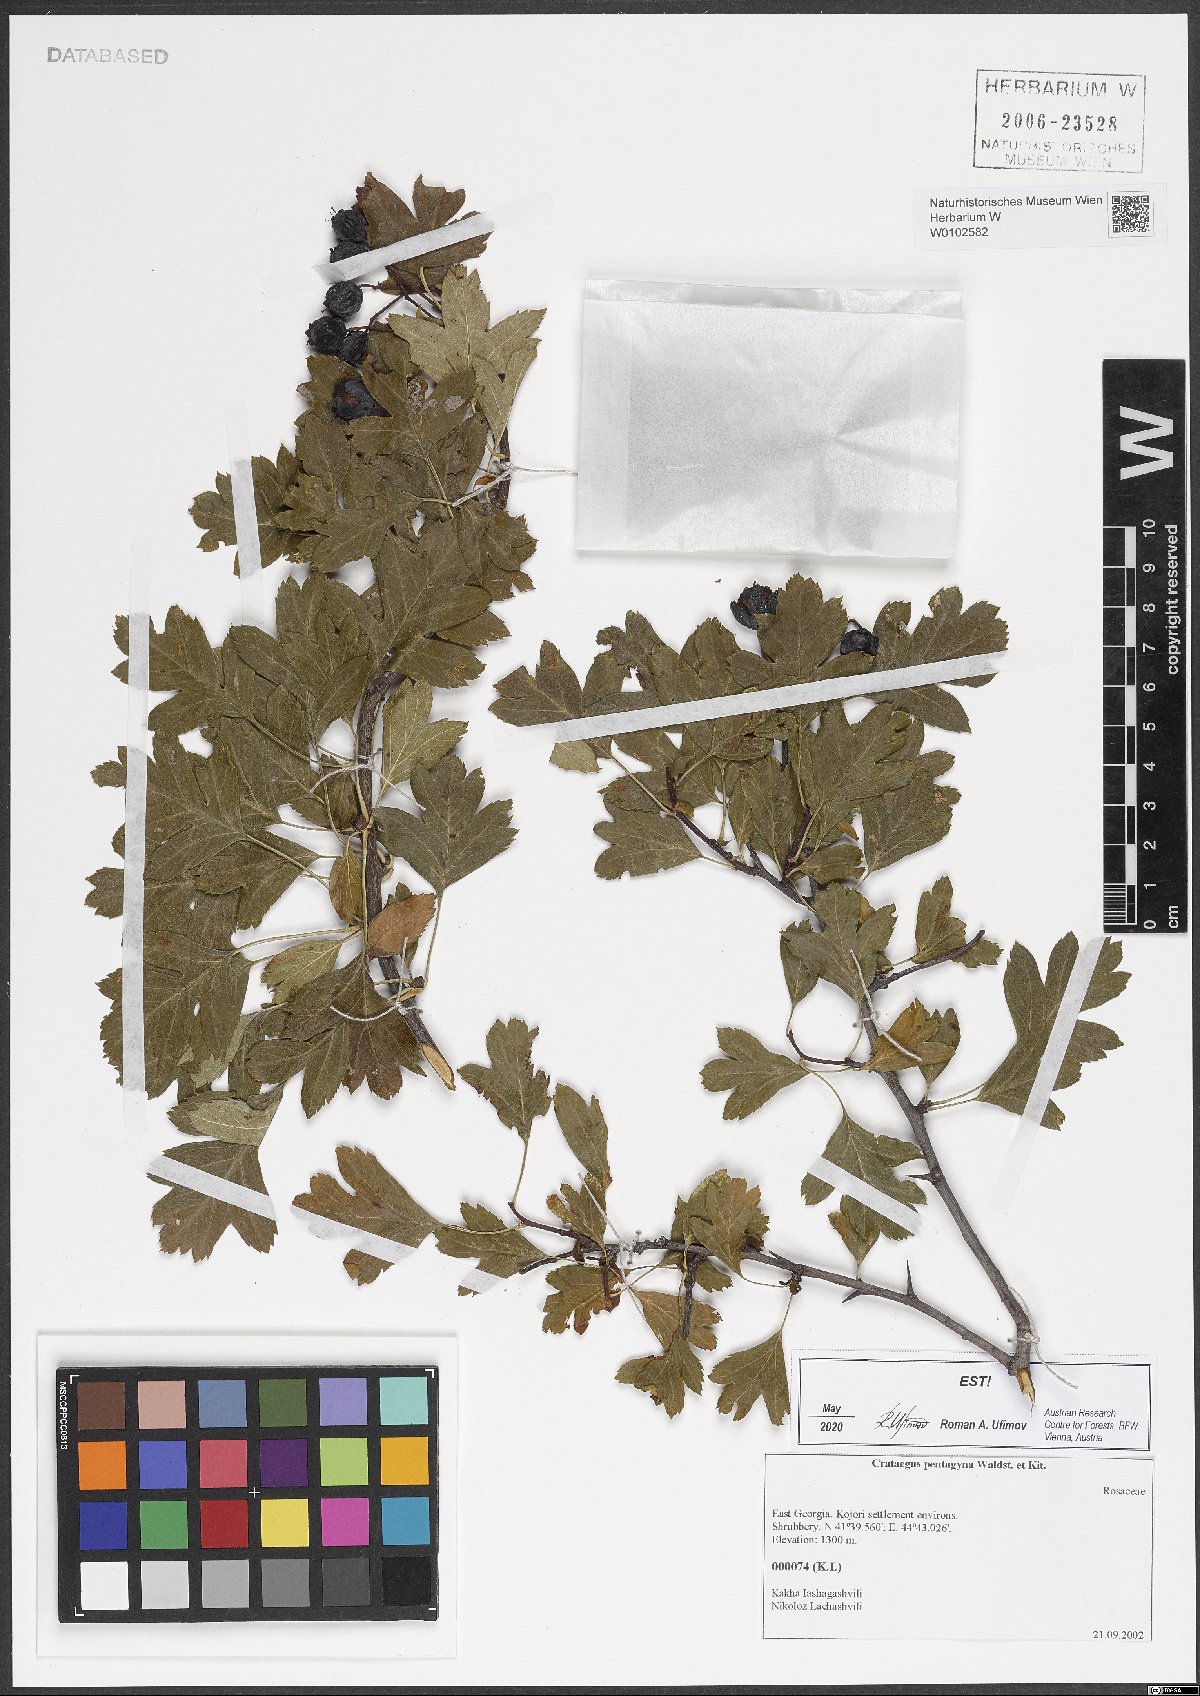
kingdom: Plantae
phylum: Tracheophyta
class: Magnoliopsida
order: Rosales
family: Rosaceae
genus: Crataegus
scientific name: Crataegus pentagyna
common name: Small-flowered black hawthorn
